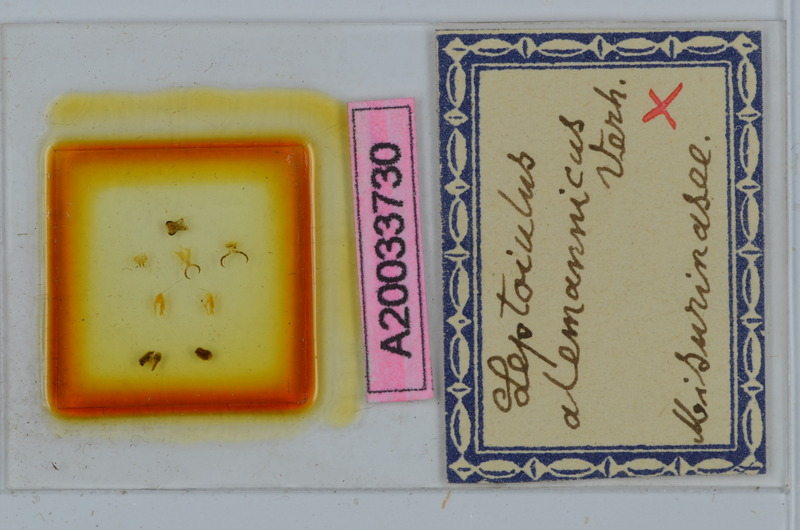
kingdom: Animalia
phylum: Arthropoda
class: Diplopoda
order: Julida
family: Julidae
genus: Leptoiulus
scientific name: Leptoiulus alemannicus
